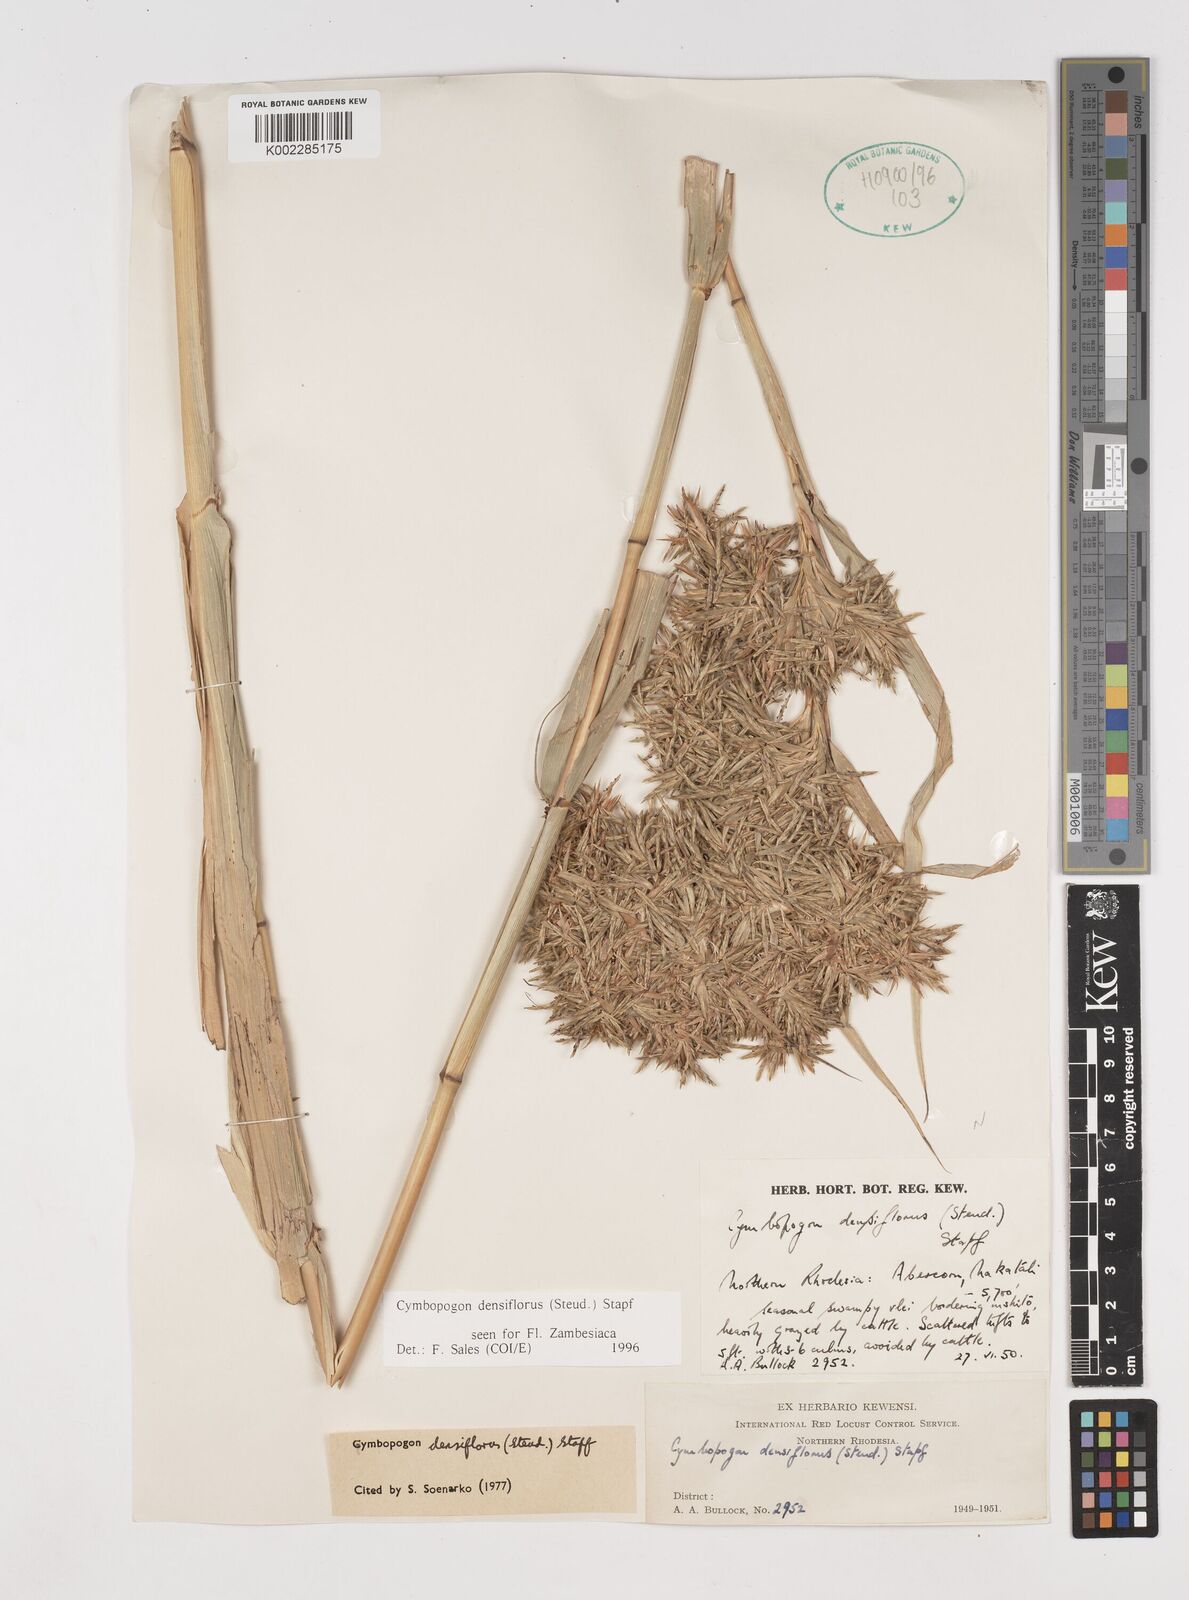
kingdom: Plantae
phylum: Tracheophyta
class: Liliopsida
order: Poales
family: Poaceae
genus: Cymbopogon
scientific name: Cymbopogon densiflorus
